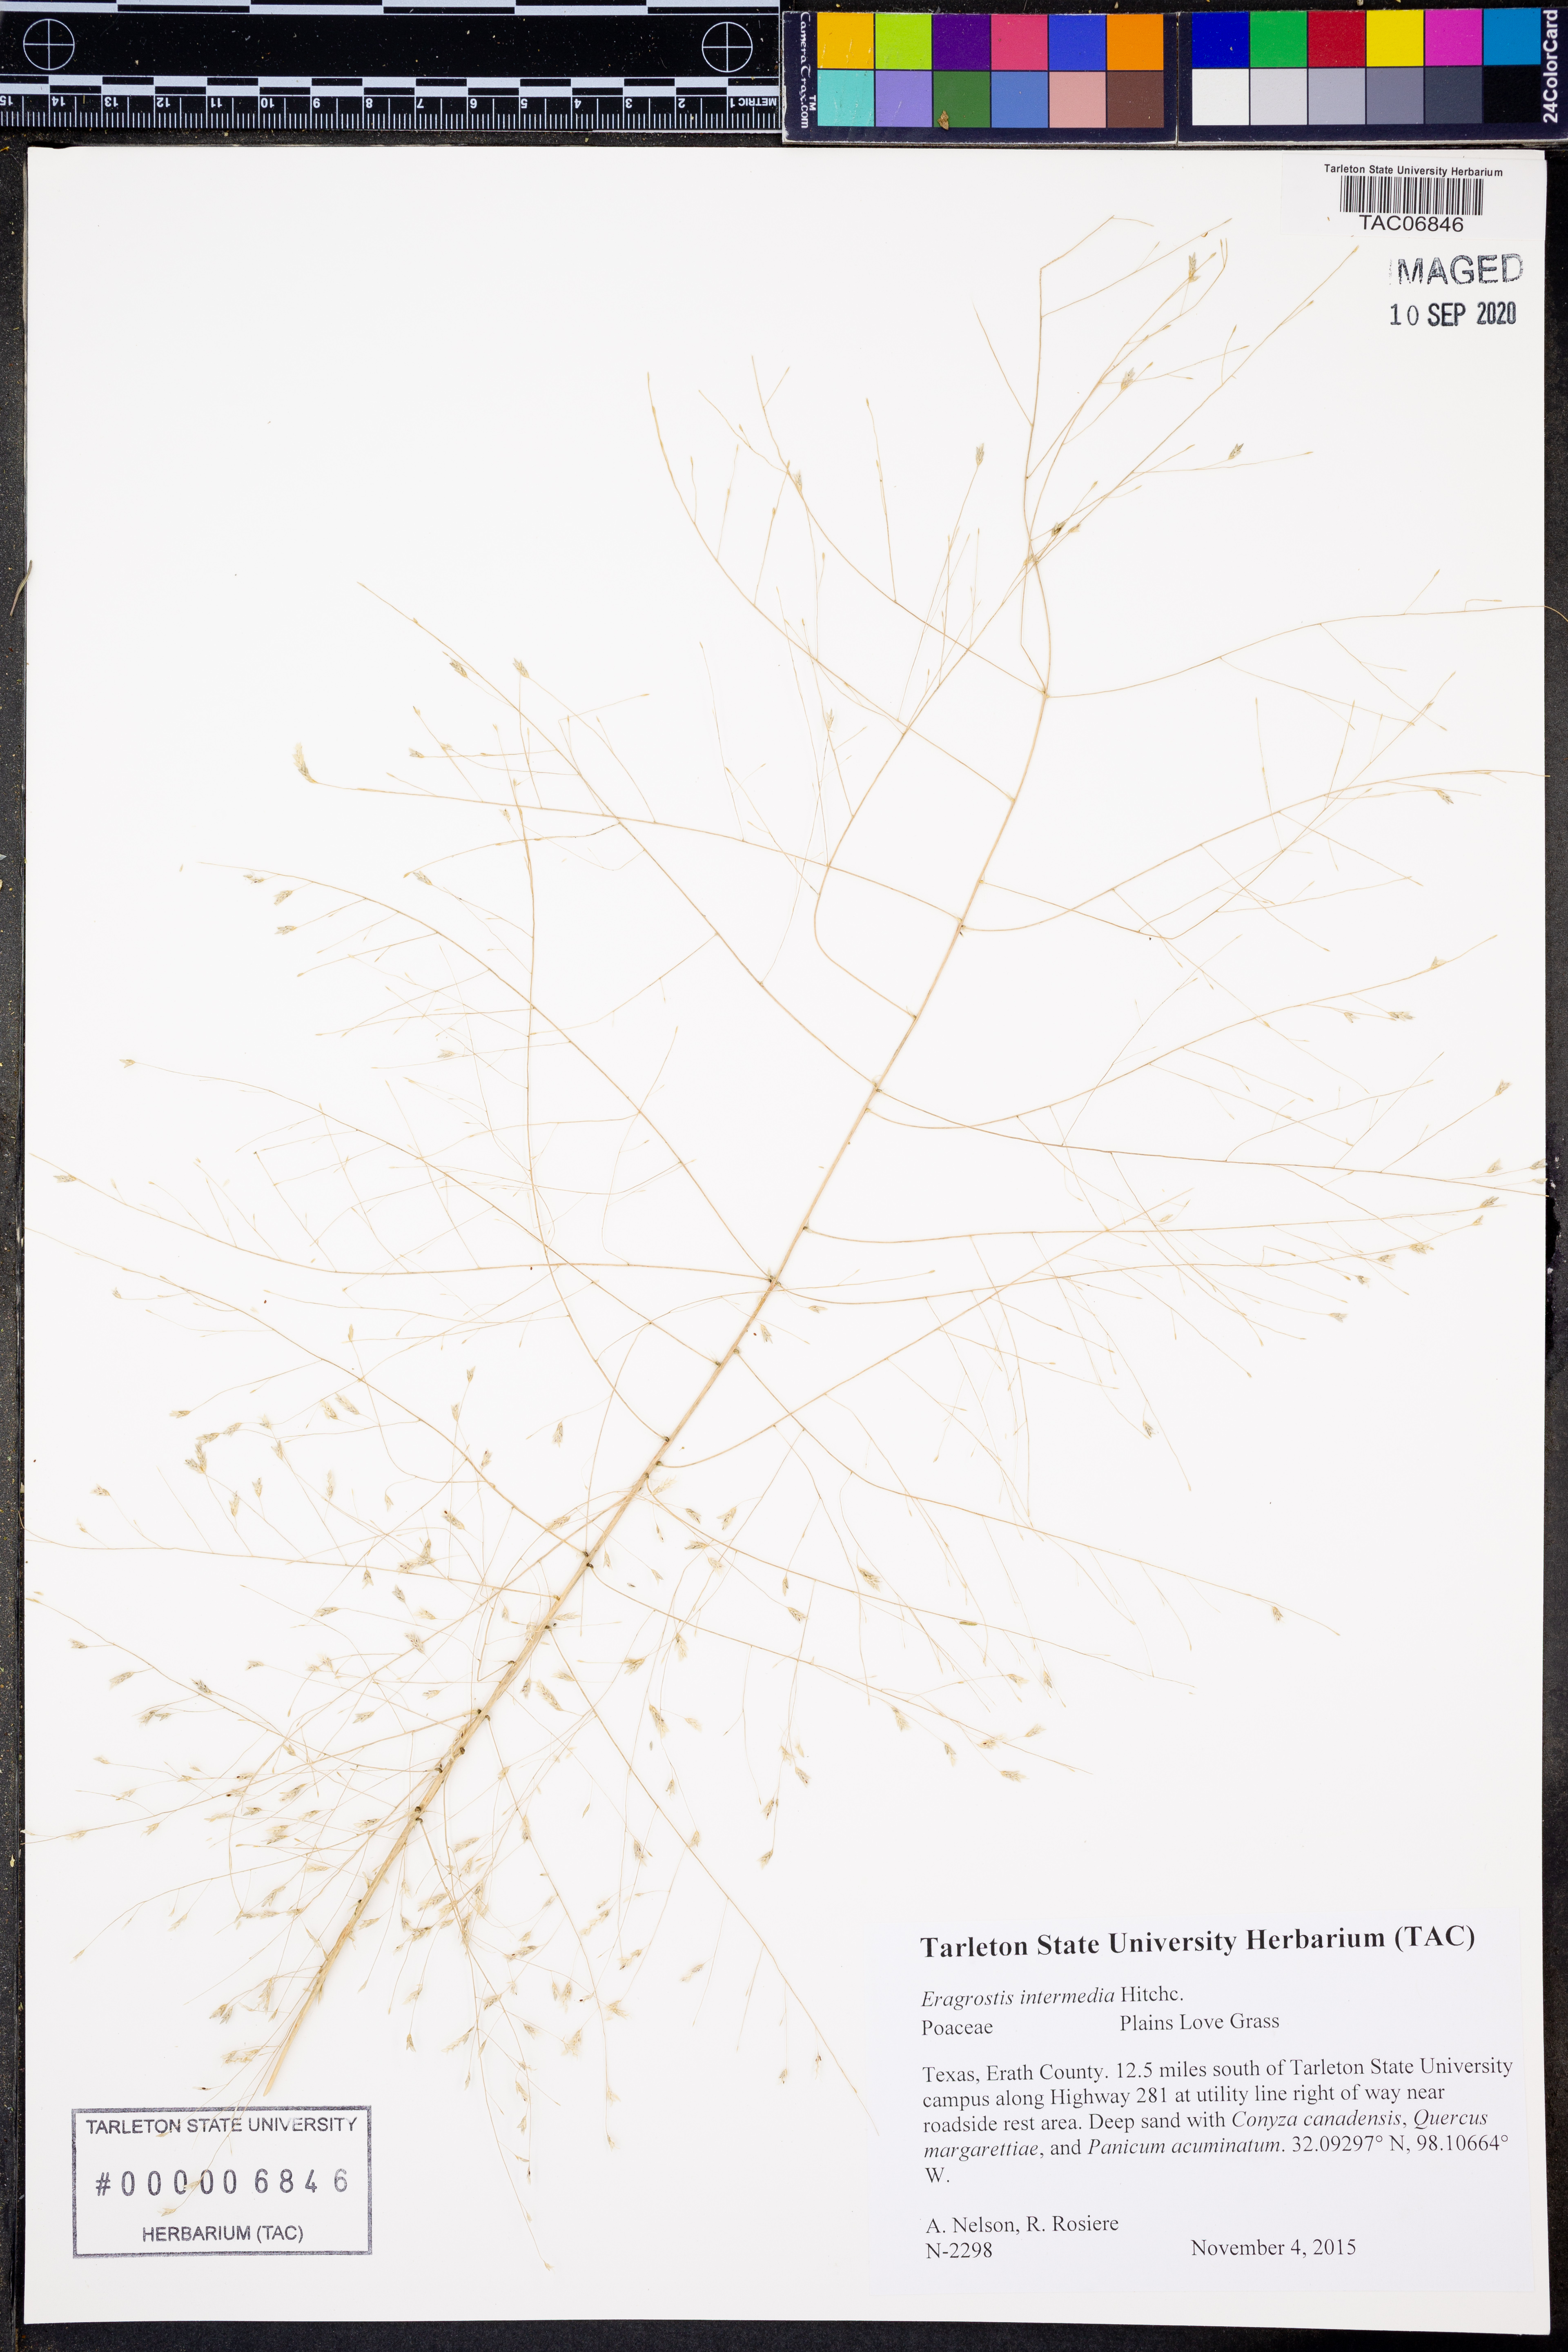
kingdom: Plantae
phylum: Tracheophyta
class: Liliopsida
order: Poales
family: Poaceae
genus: Eragrostis
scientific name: Eragrostis intermedia
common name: Plains love grass
